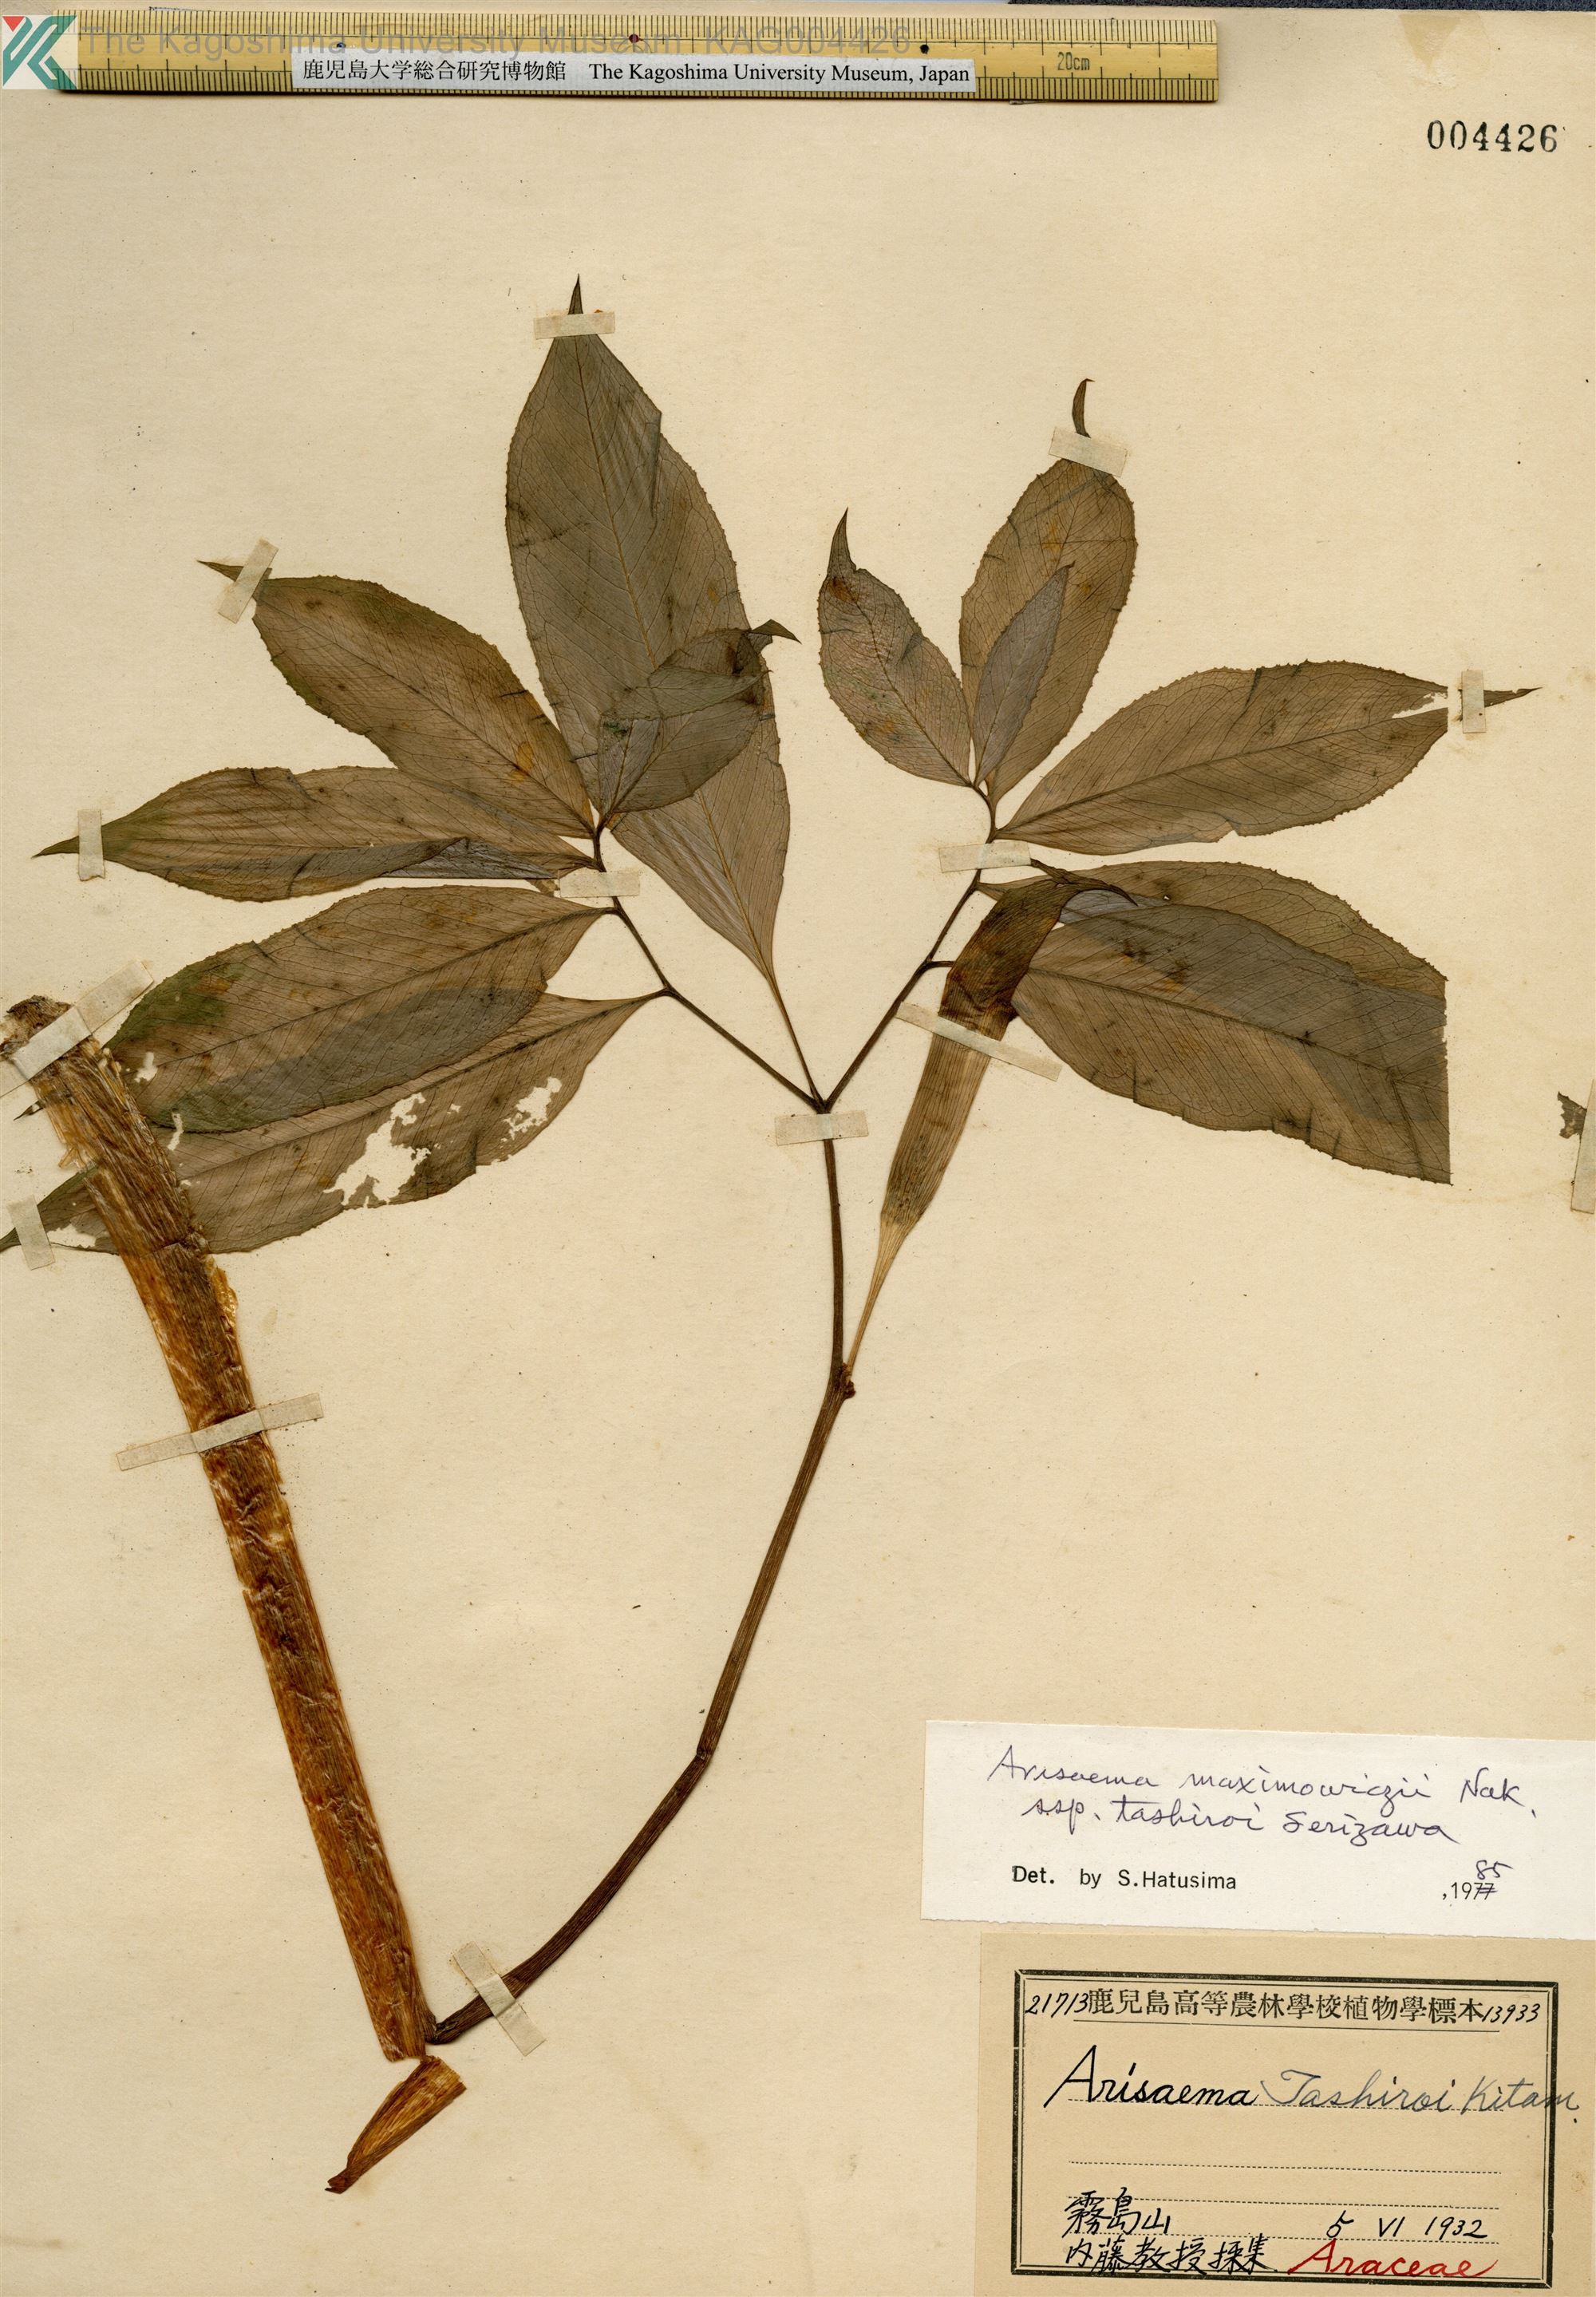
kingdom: Plantae
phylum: Tracheophyta
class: Liliopsida
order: Alismatales
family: Araceae
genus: Arisaema
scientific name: Arisaema tashiroi
